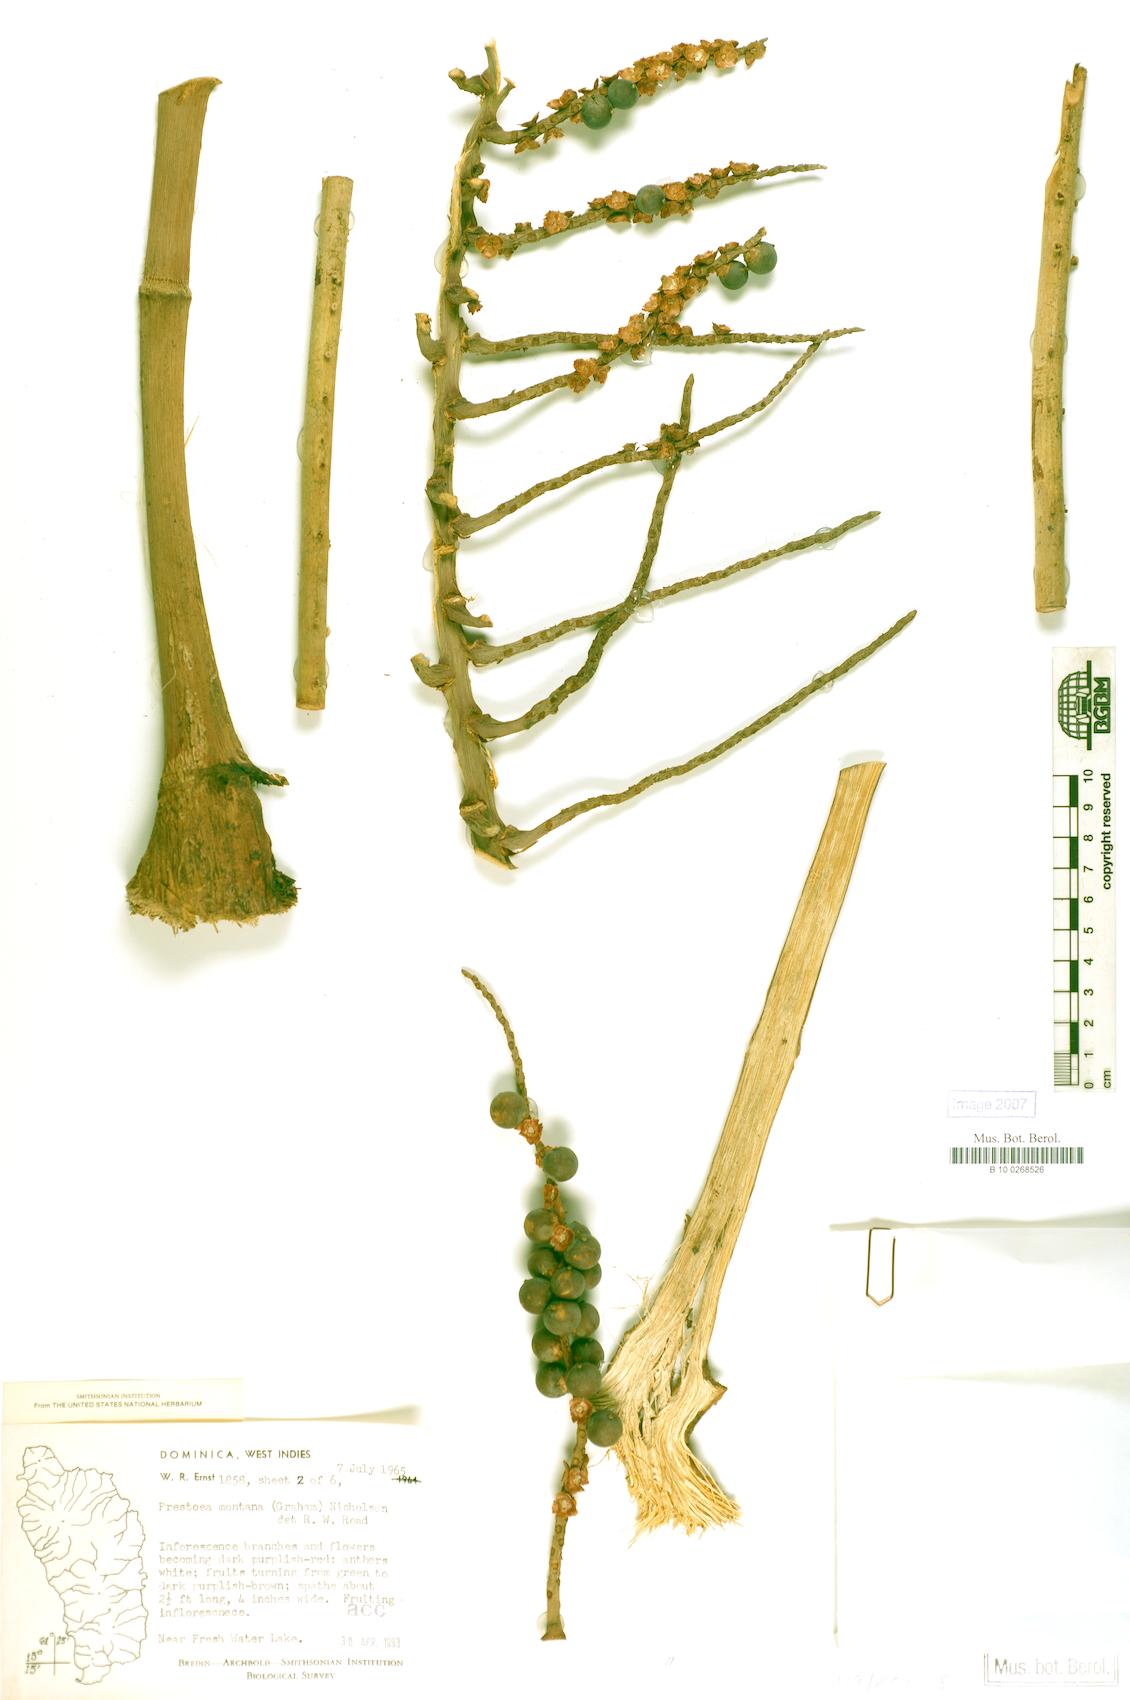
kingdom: Plantae
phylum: Tracheophyta
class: Liliopsida
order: Arecales
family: Arecaceae
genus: Prestoea
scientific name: Prestoea acuminata
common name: Sierran palm
